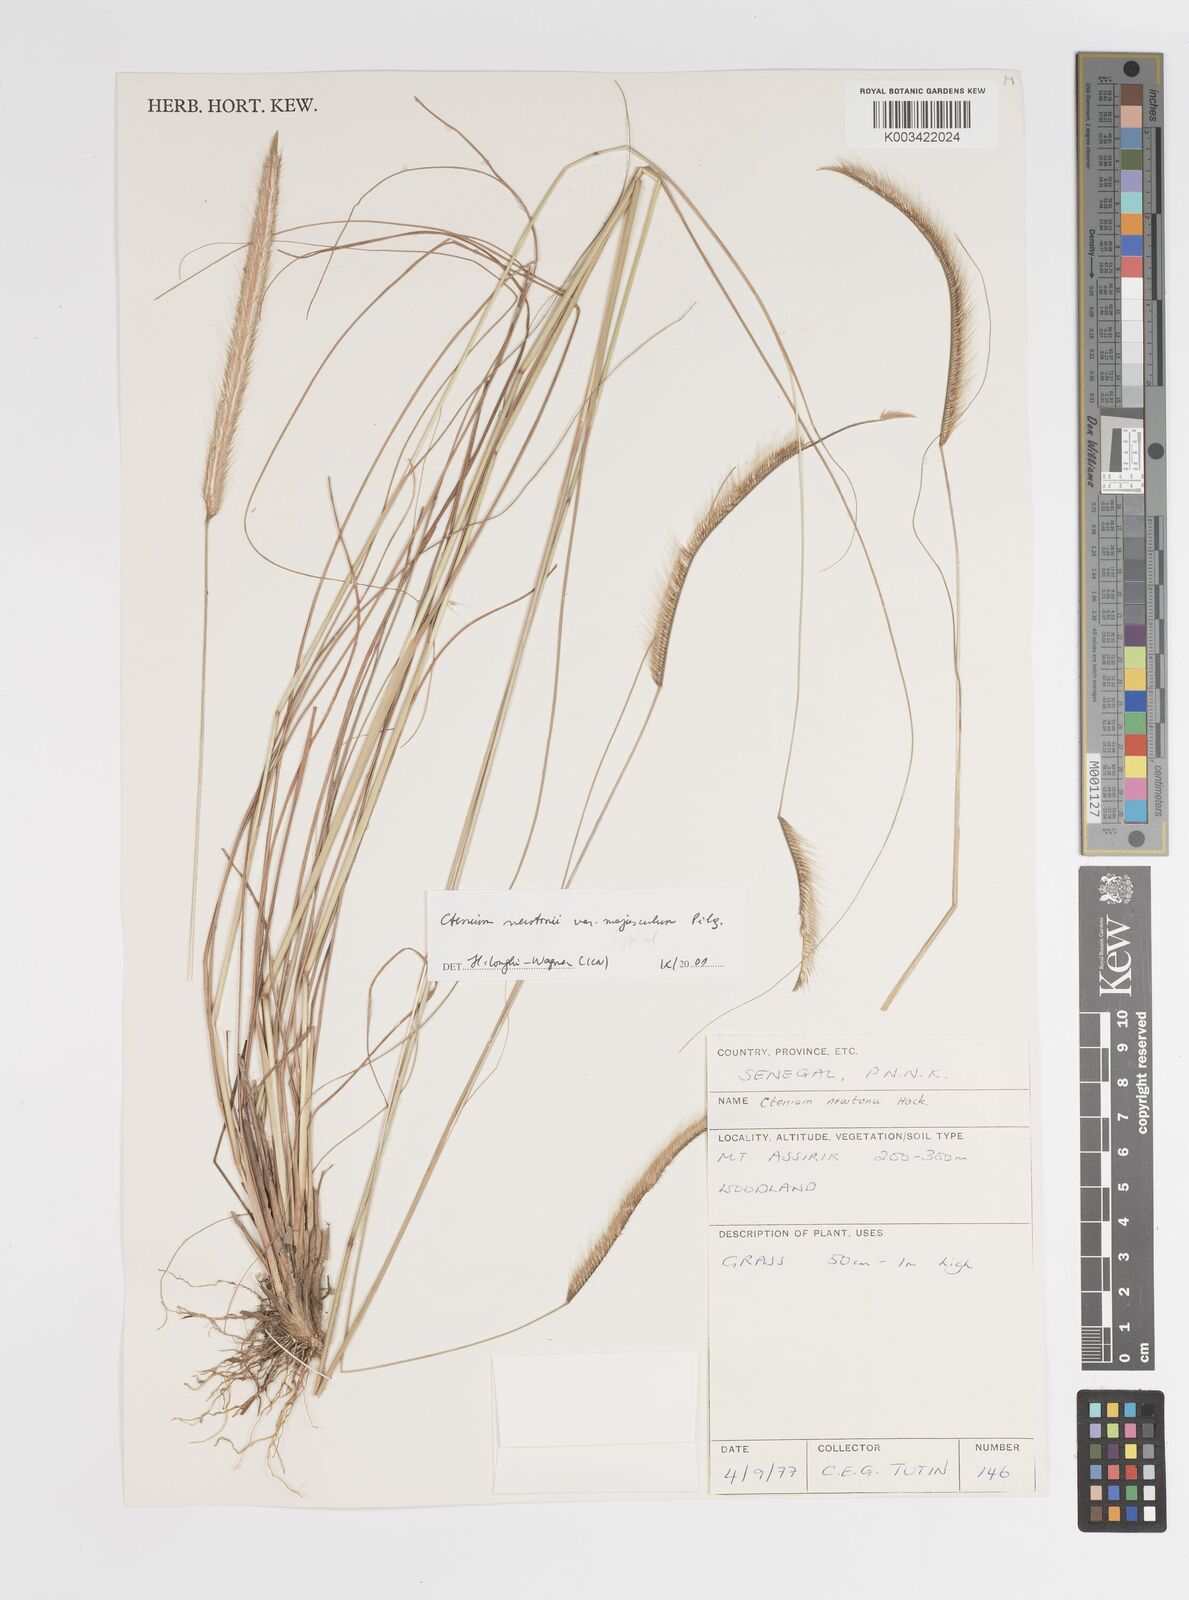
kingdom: Plantae
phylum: Tracheophyta
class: Liliopsida
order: Poales
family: Poaceae
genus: Ctenium
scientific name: Ctenium newtonii
